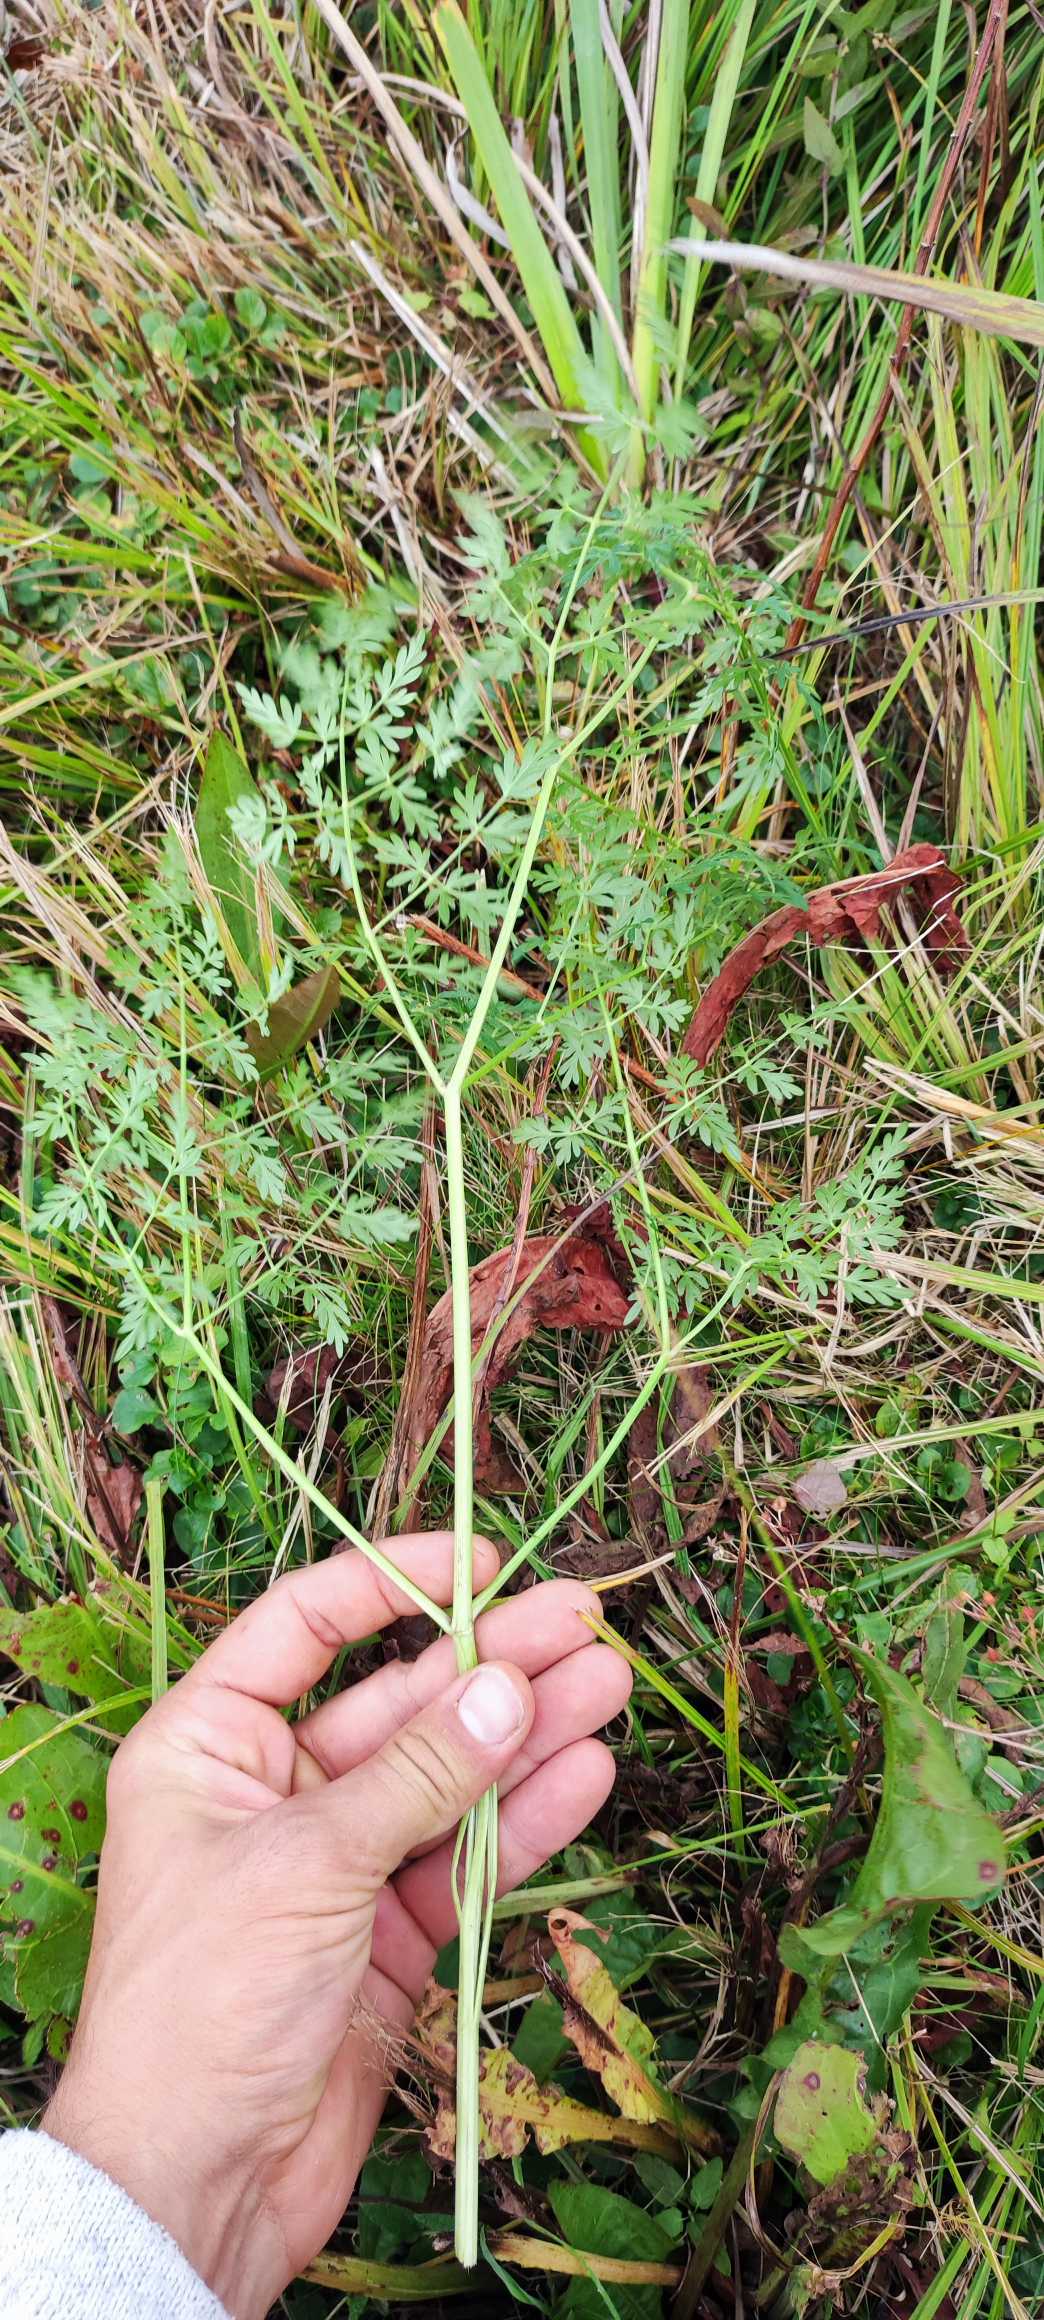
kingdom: Plantae
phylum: Tracheophyta
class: Magnoliopsida
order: Apiales
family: Apiaceae
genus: Thysselinum
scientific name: Thysselinum palustre
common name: Kær-svovlrod
